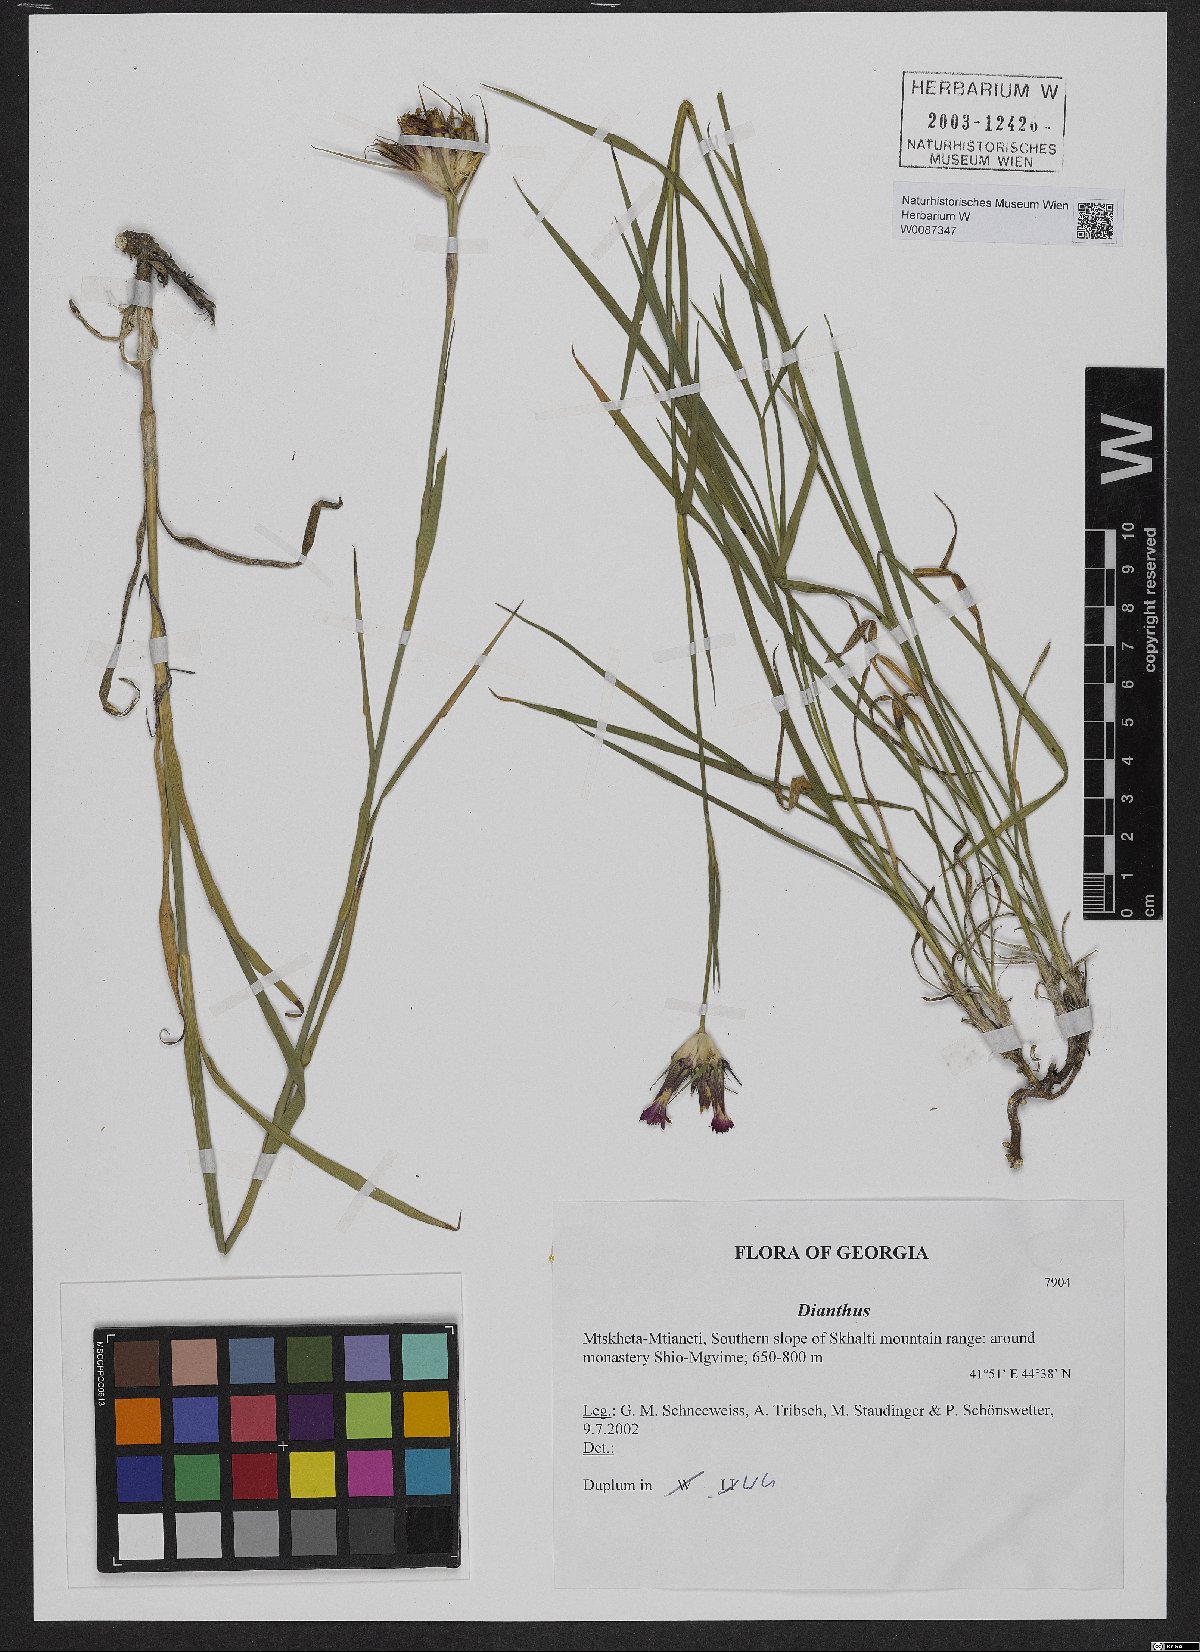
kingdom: Plantae
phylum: Tracheophyta
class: Magnoliopsida
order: Caryophyllales
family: Caryophyllaceae
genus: Dianthus
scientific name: Dianthus
